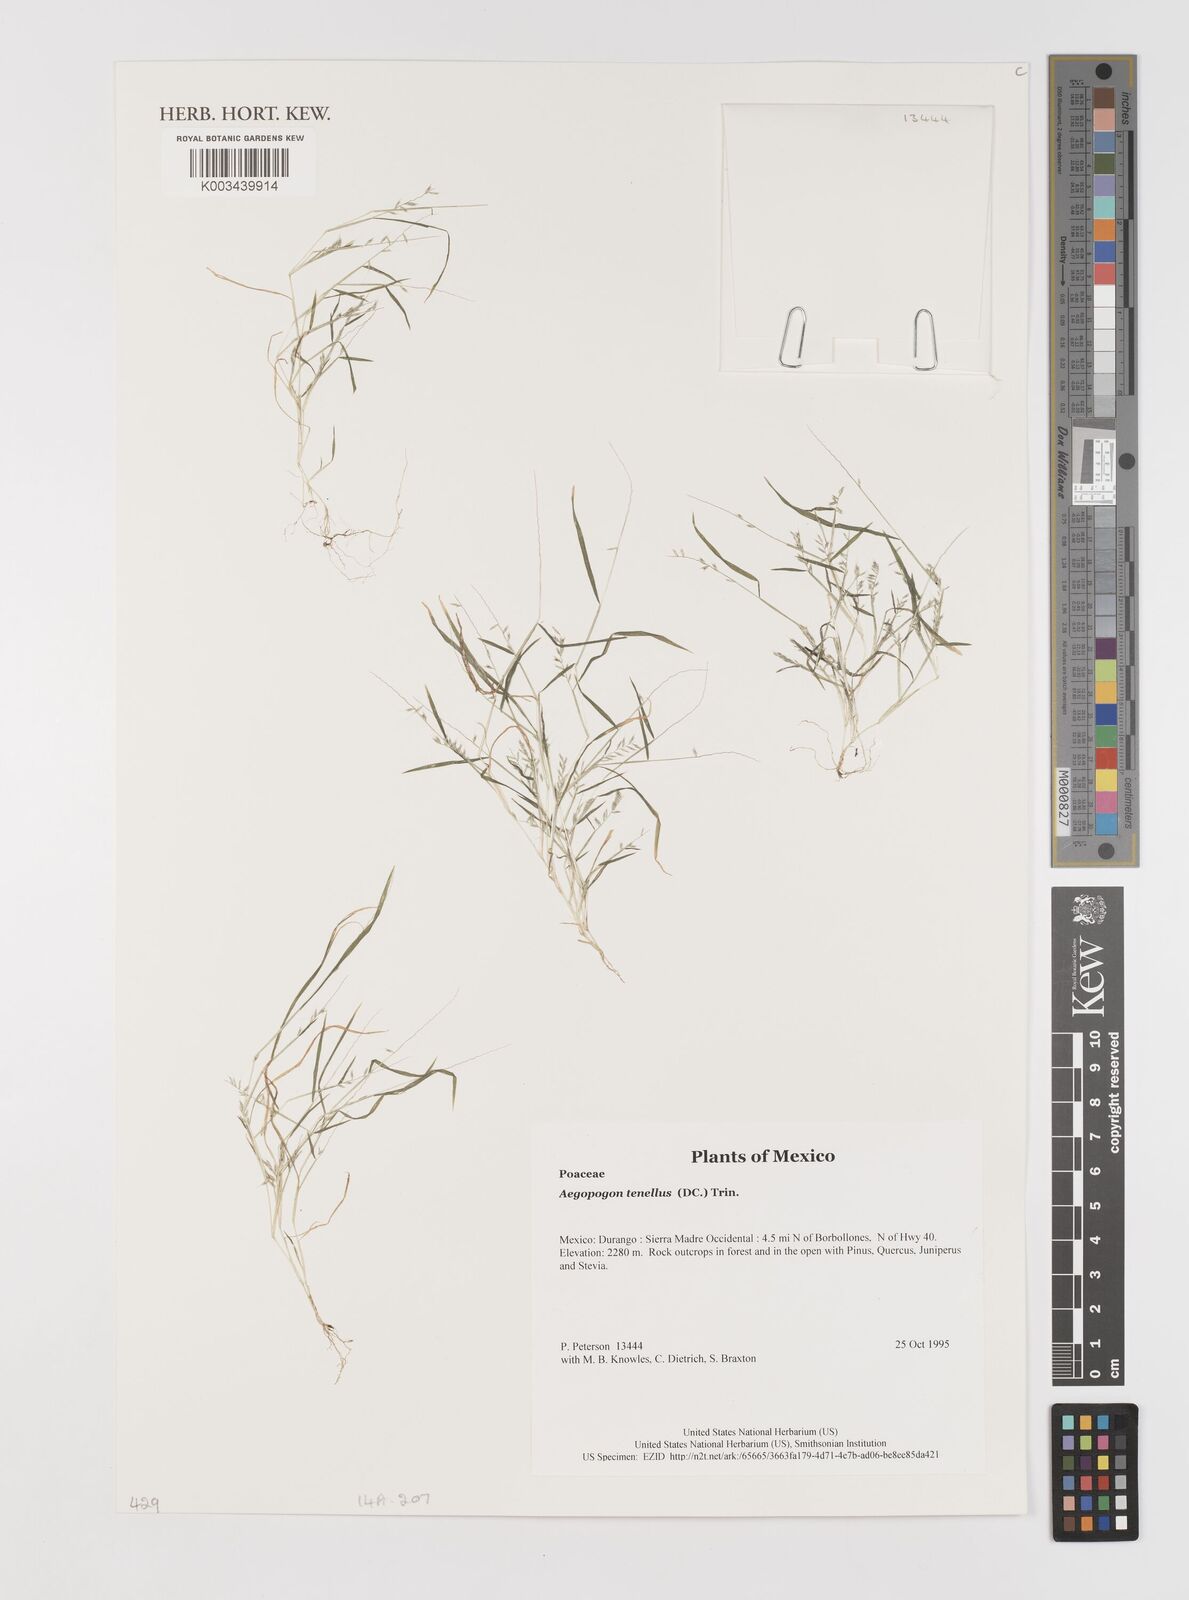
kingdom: Plantae
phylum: Tracheophyta
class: Liliopsida
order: Poales
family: Poaceae
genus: Muhlenbergia
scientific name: Muhlenbergia uniseta
